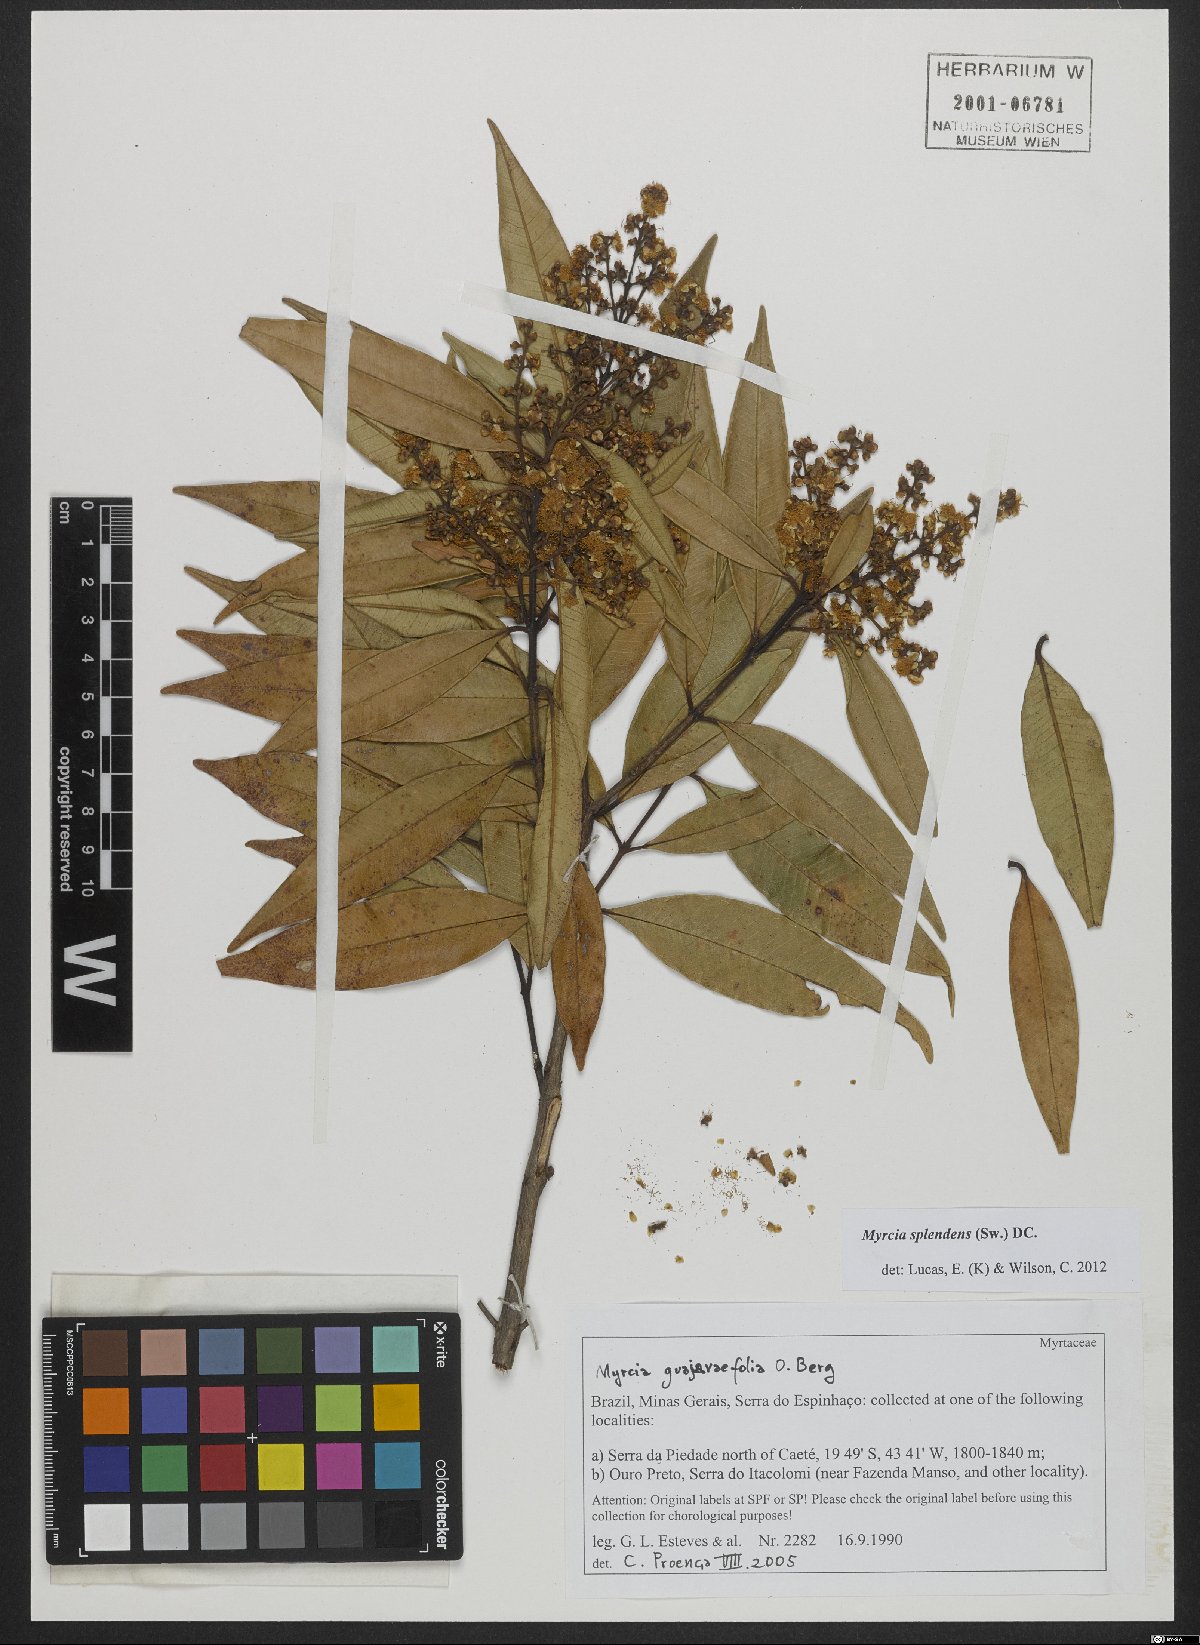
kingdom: Plantae
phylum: Tracheophyta
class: Magnoliopsida
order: Myrtales
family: Myrtaceae
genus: Myrcia
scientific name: Myrcia splendens
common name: Surinam cherry
